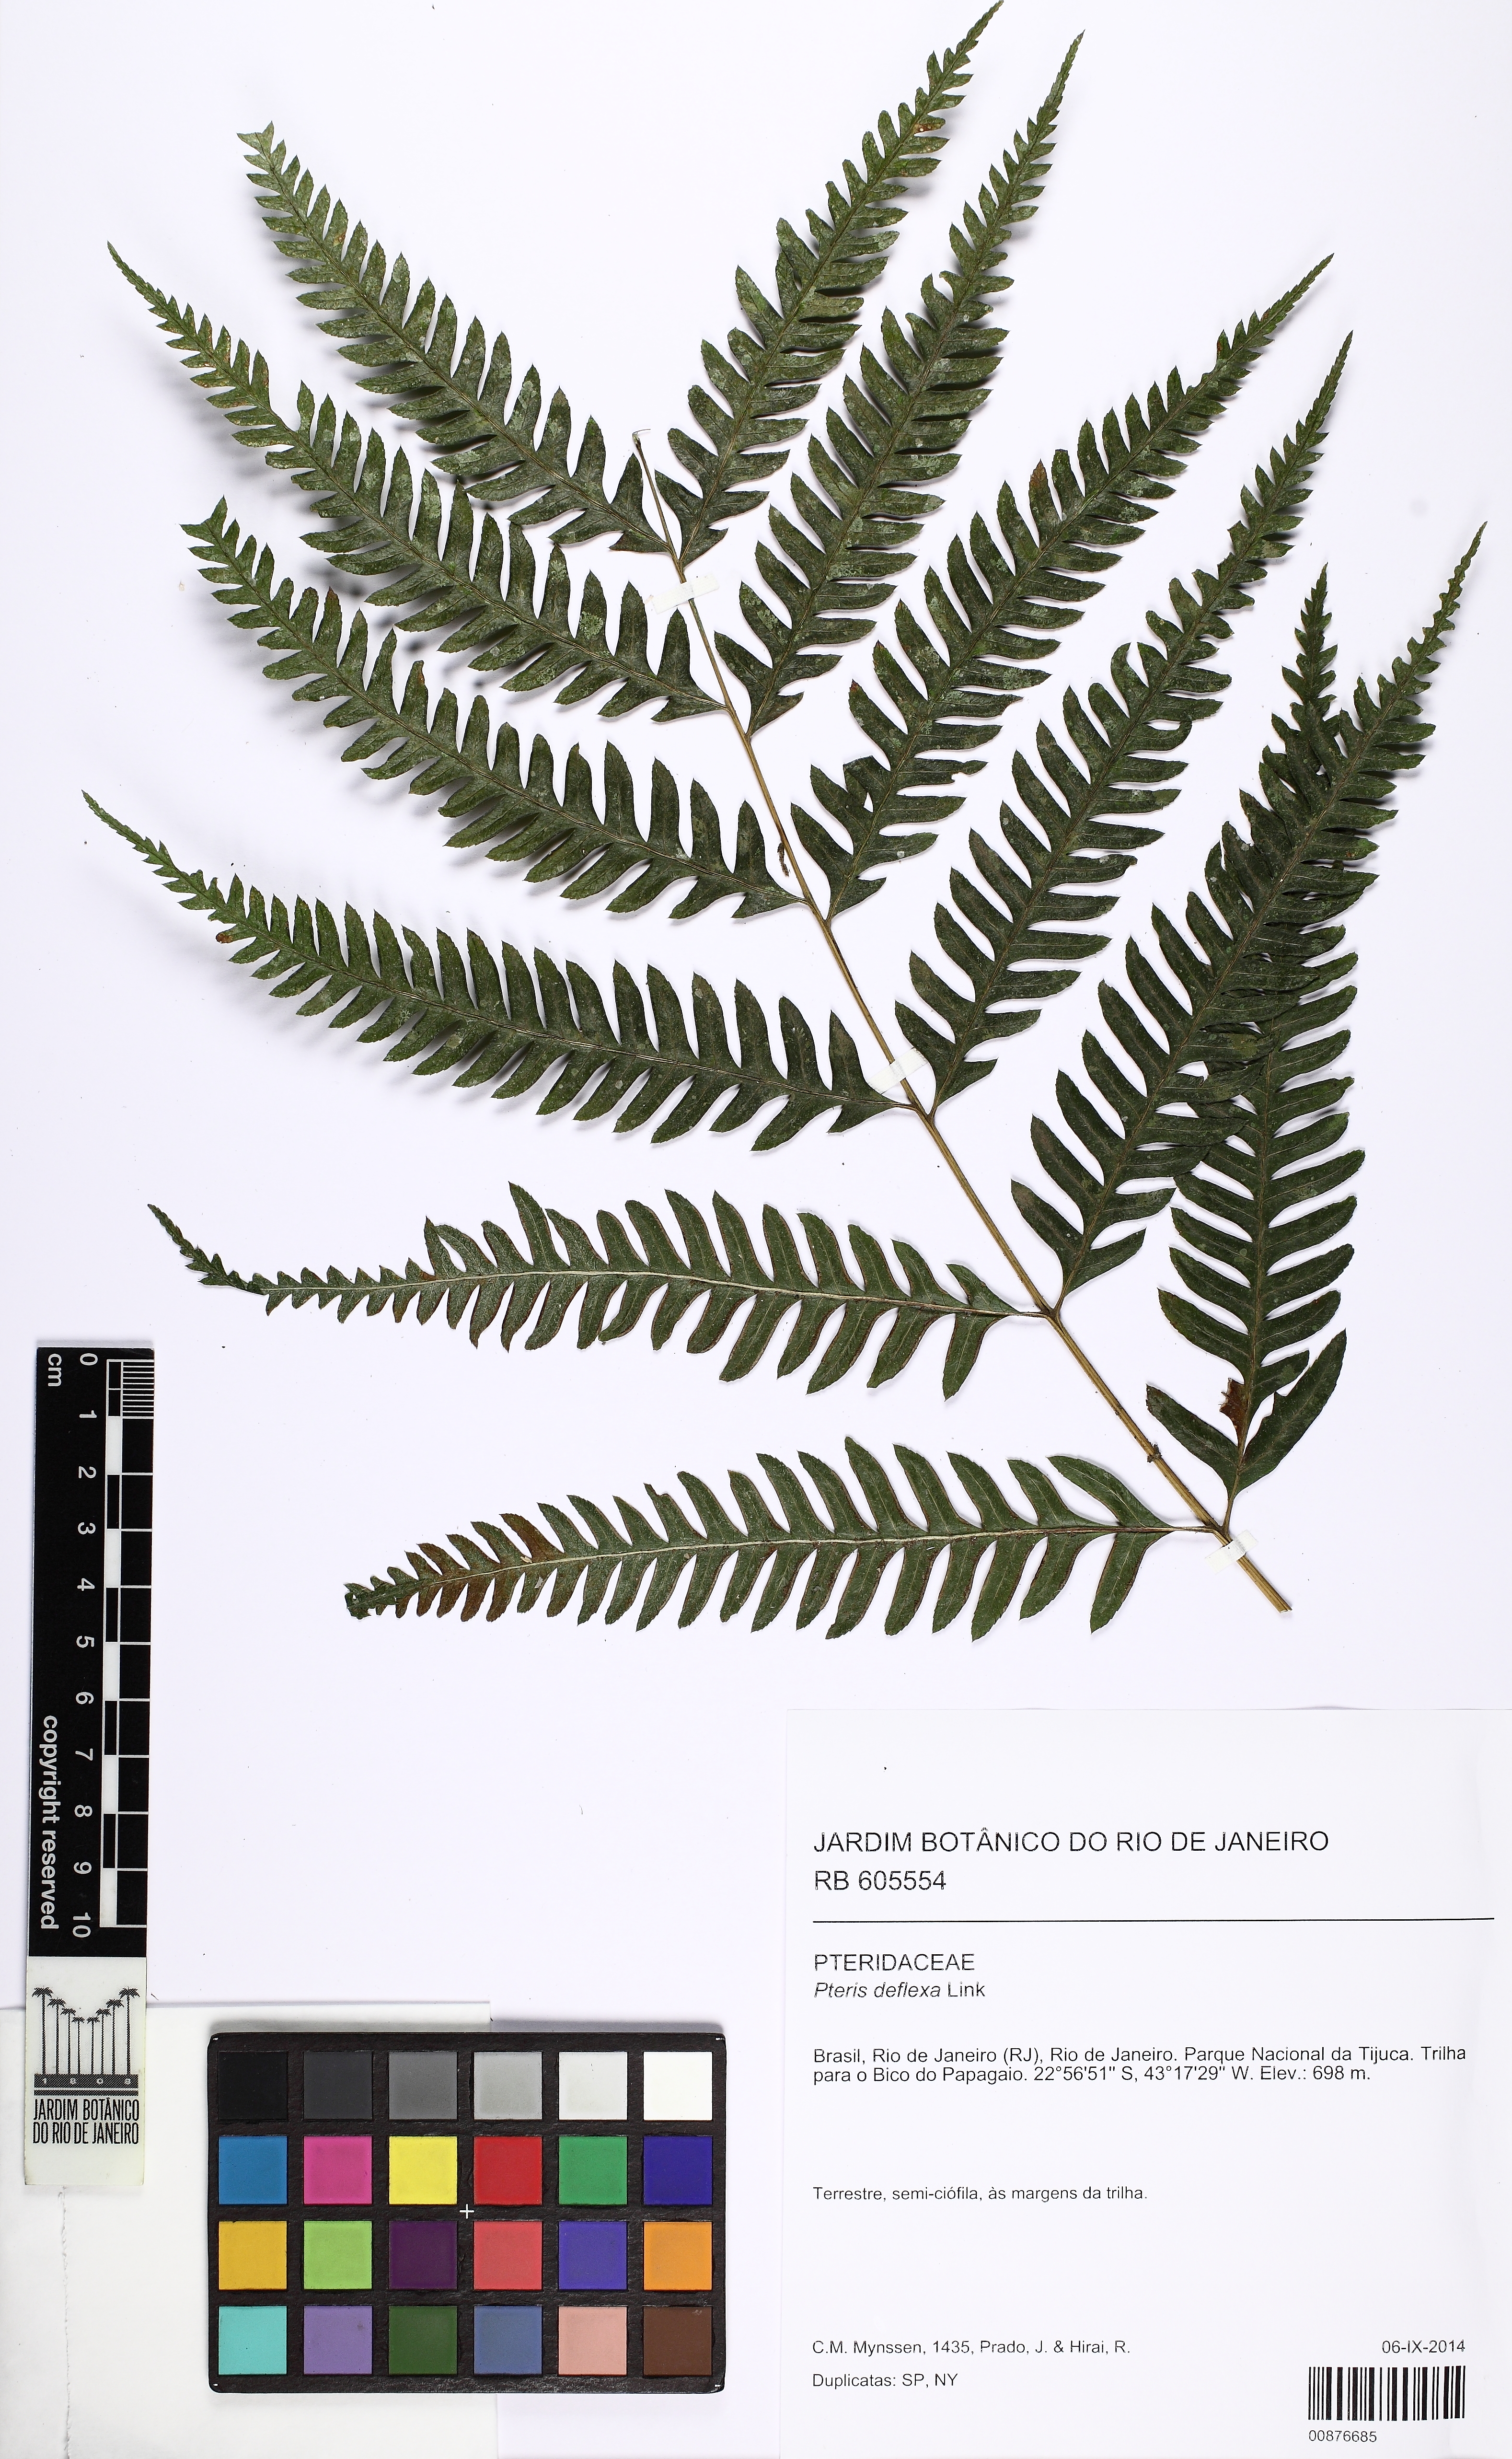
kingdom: Plantae
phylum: Tracheophyta
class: Polypodiopsida
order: Polypodiales
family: Pteridaceae
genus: Pteris
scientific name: Pteris deflexa
